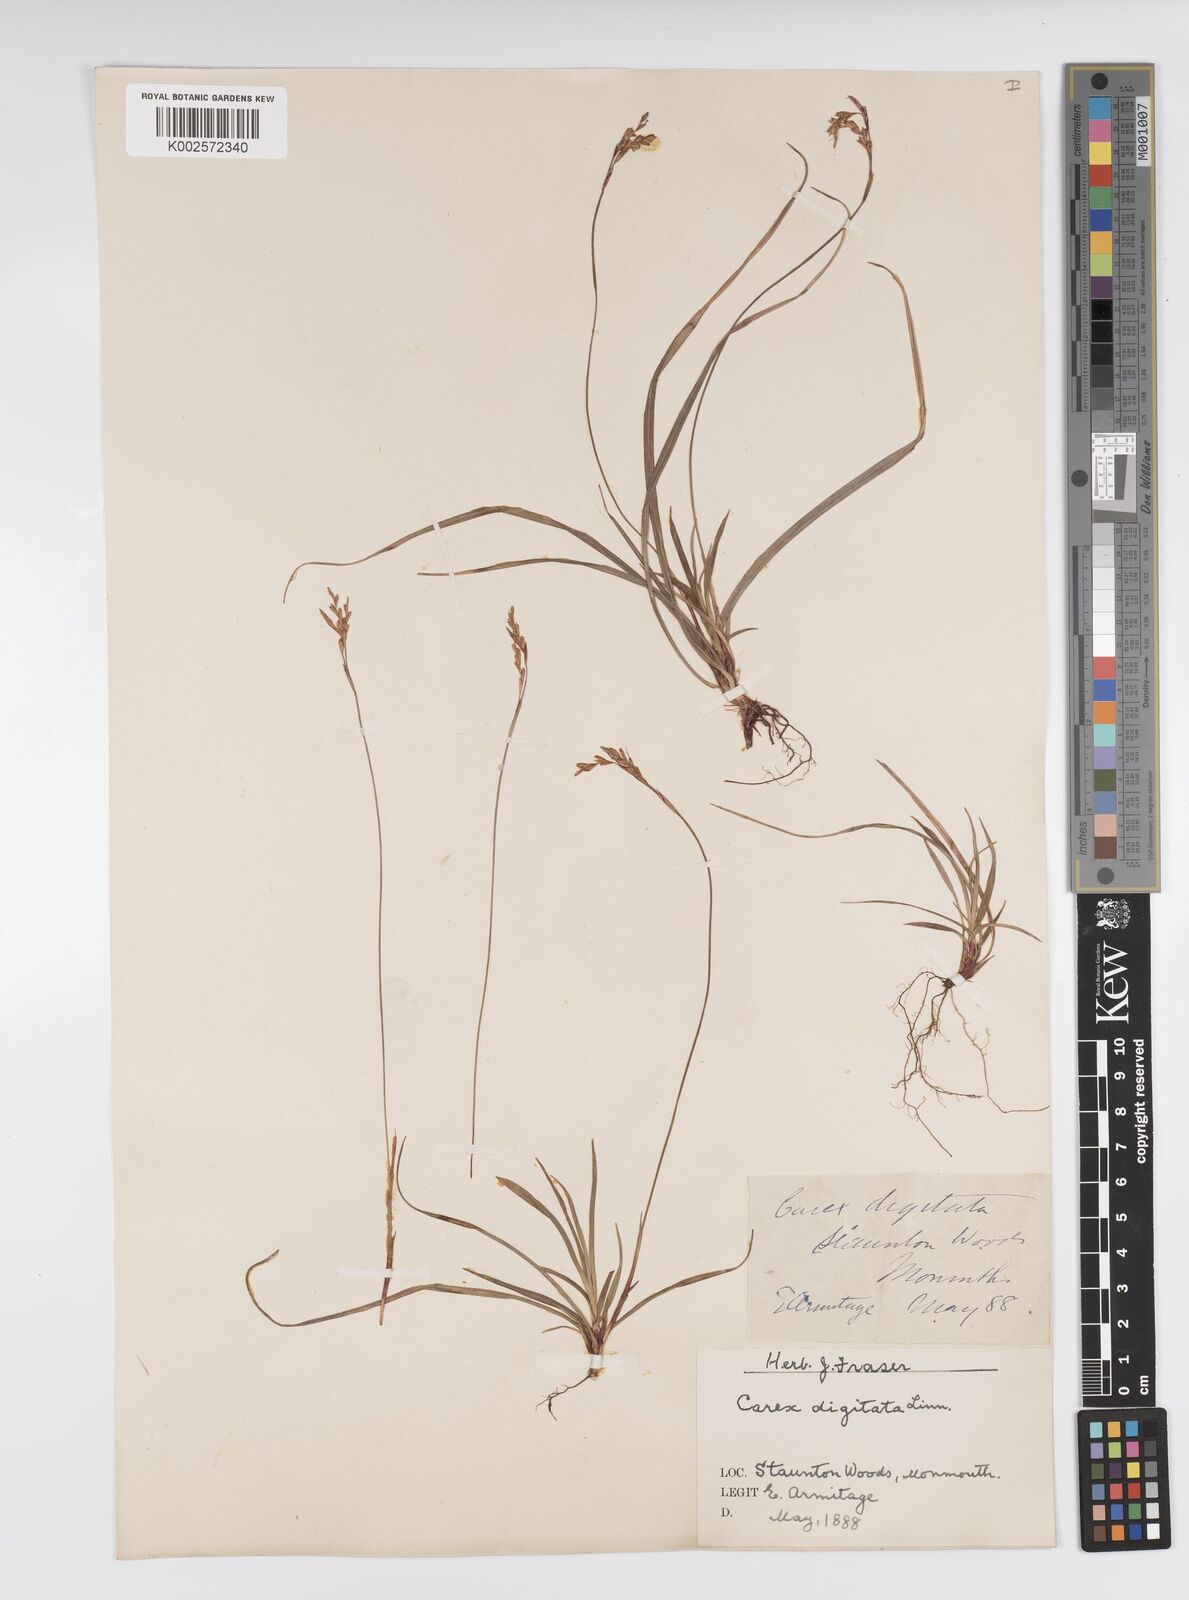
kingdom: Plantae
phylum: Tracheophyta
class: Liliopsida
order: Poales
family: Cyperaceae
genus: Carex
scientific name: Carex digitata
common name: Fingered sedge
